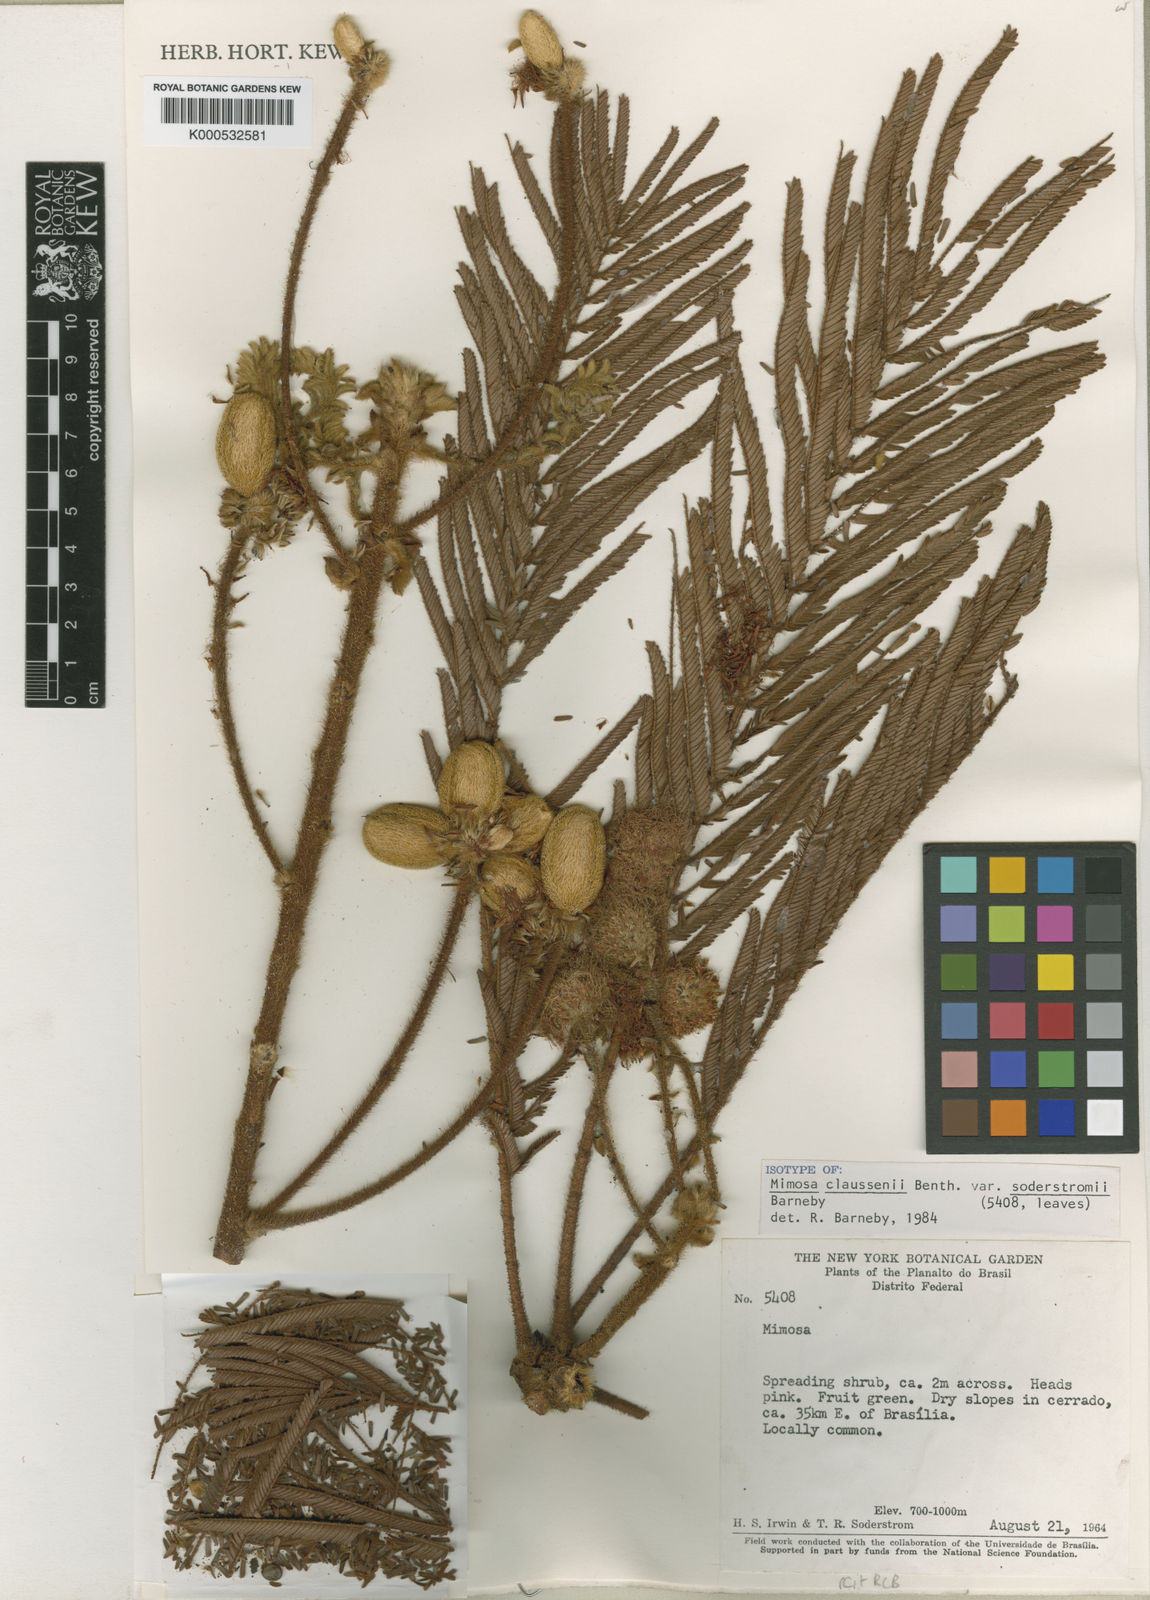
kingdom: Plantae
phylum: Tracheophyta
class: Magnoliopsida
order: Fabales
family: Fabaceae
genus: Mimosa
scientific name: Mimosa claussenii
